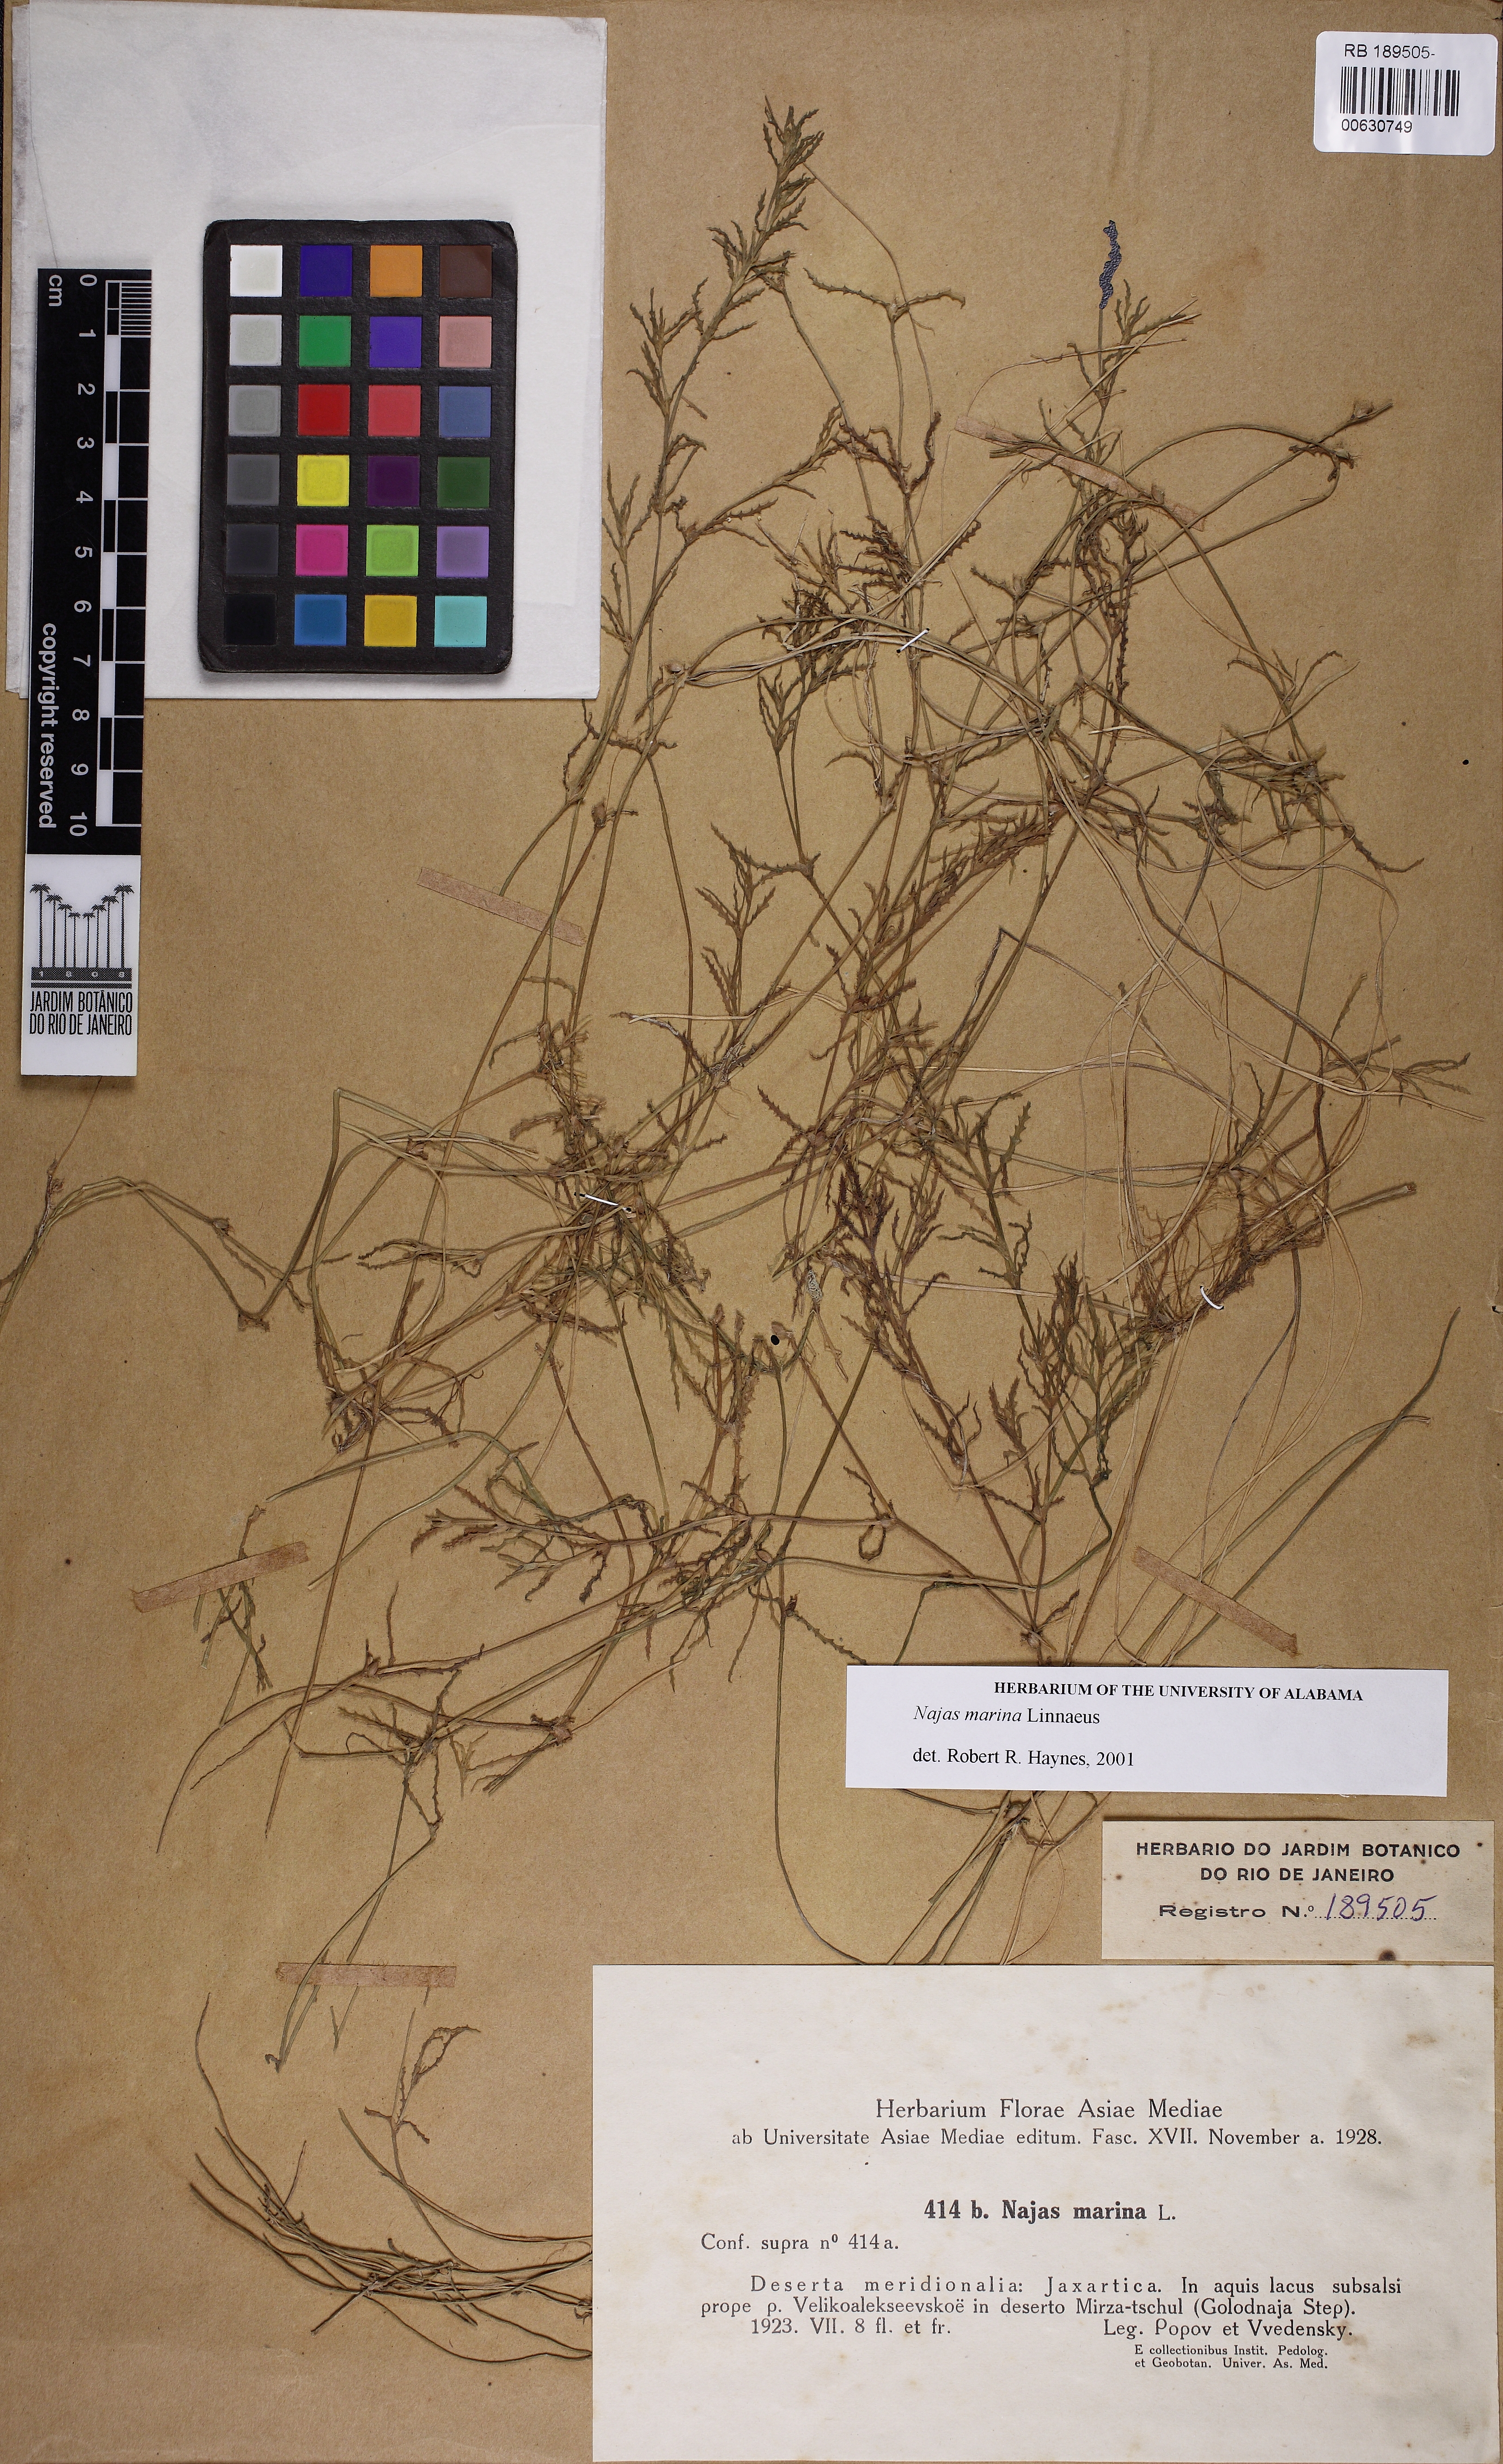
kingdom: Plantae
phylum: Tracheophyta
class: Liliopsida
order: Alismatales
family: Hydrocharitaceae
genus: Najas
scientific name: Najas marina
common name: Holly-leaved naiad
